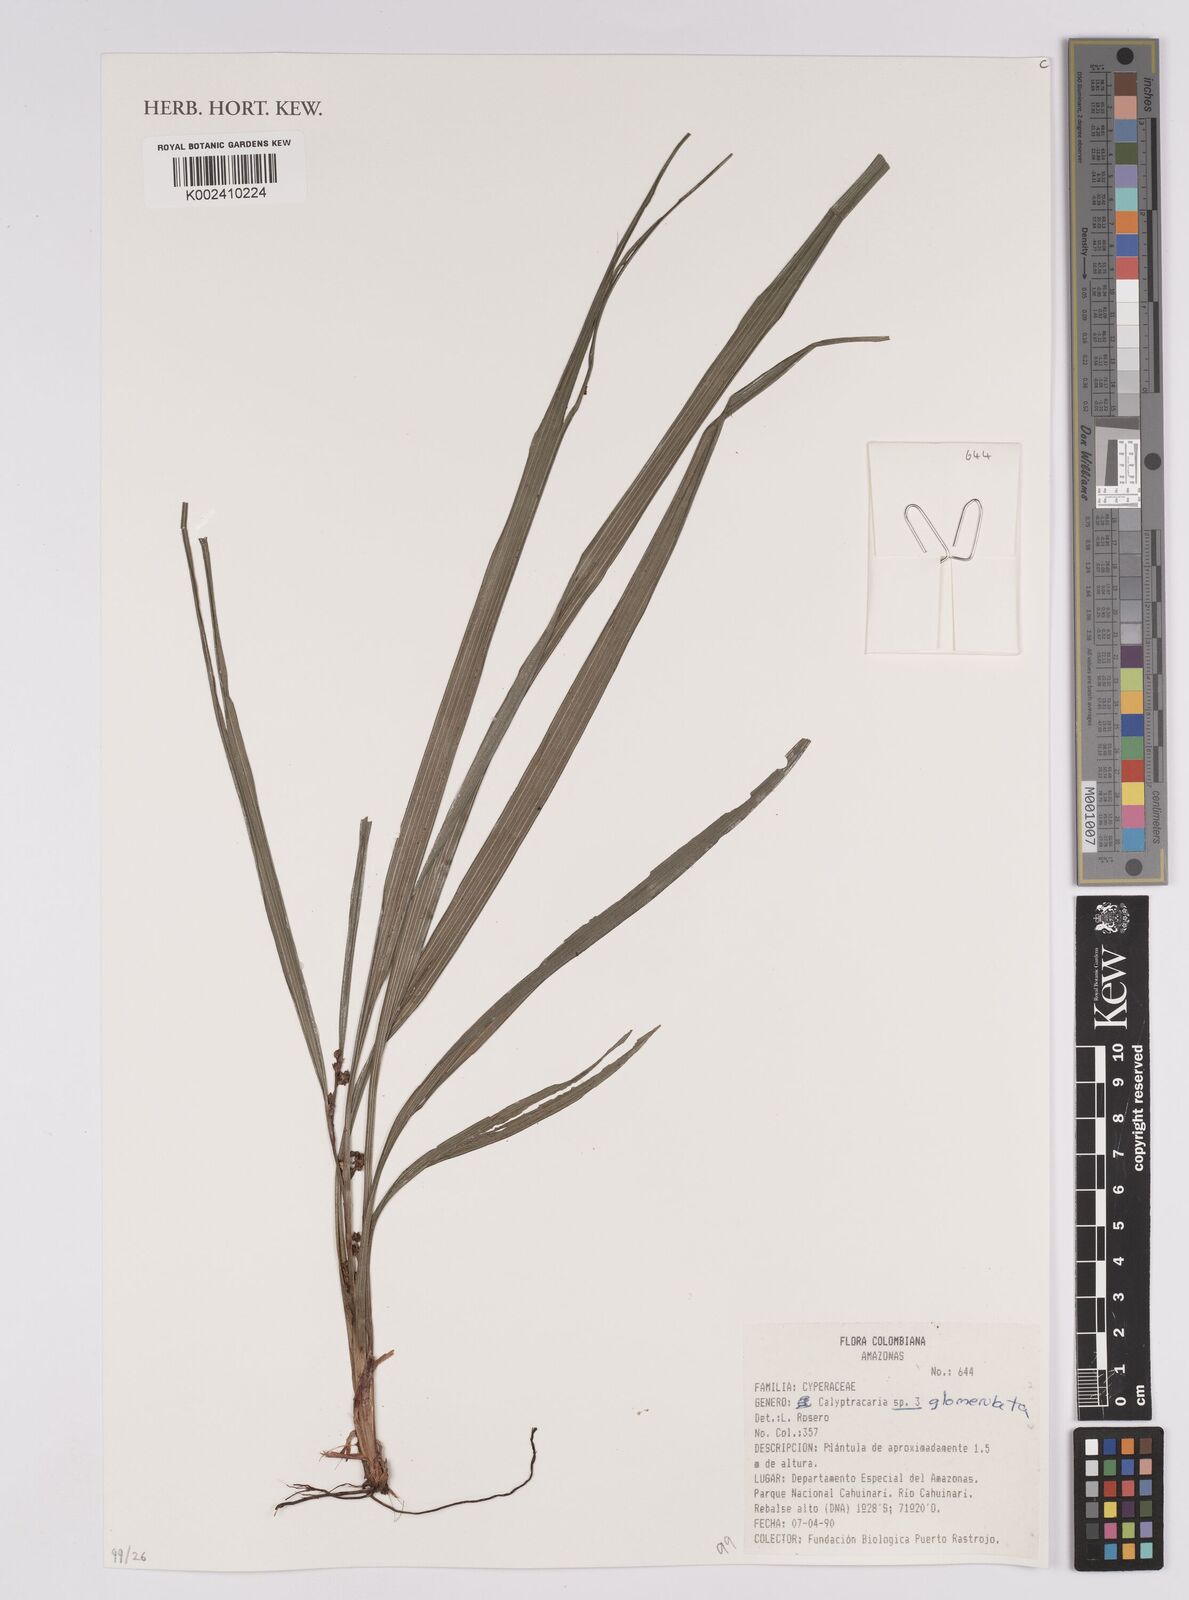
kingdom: Plantae
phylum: Tracheophyta
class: Liliopsida
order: Poales
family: Cyperaceae
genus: Calyptrocarya
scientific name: Calyptrocarya glomerulata
